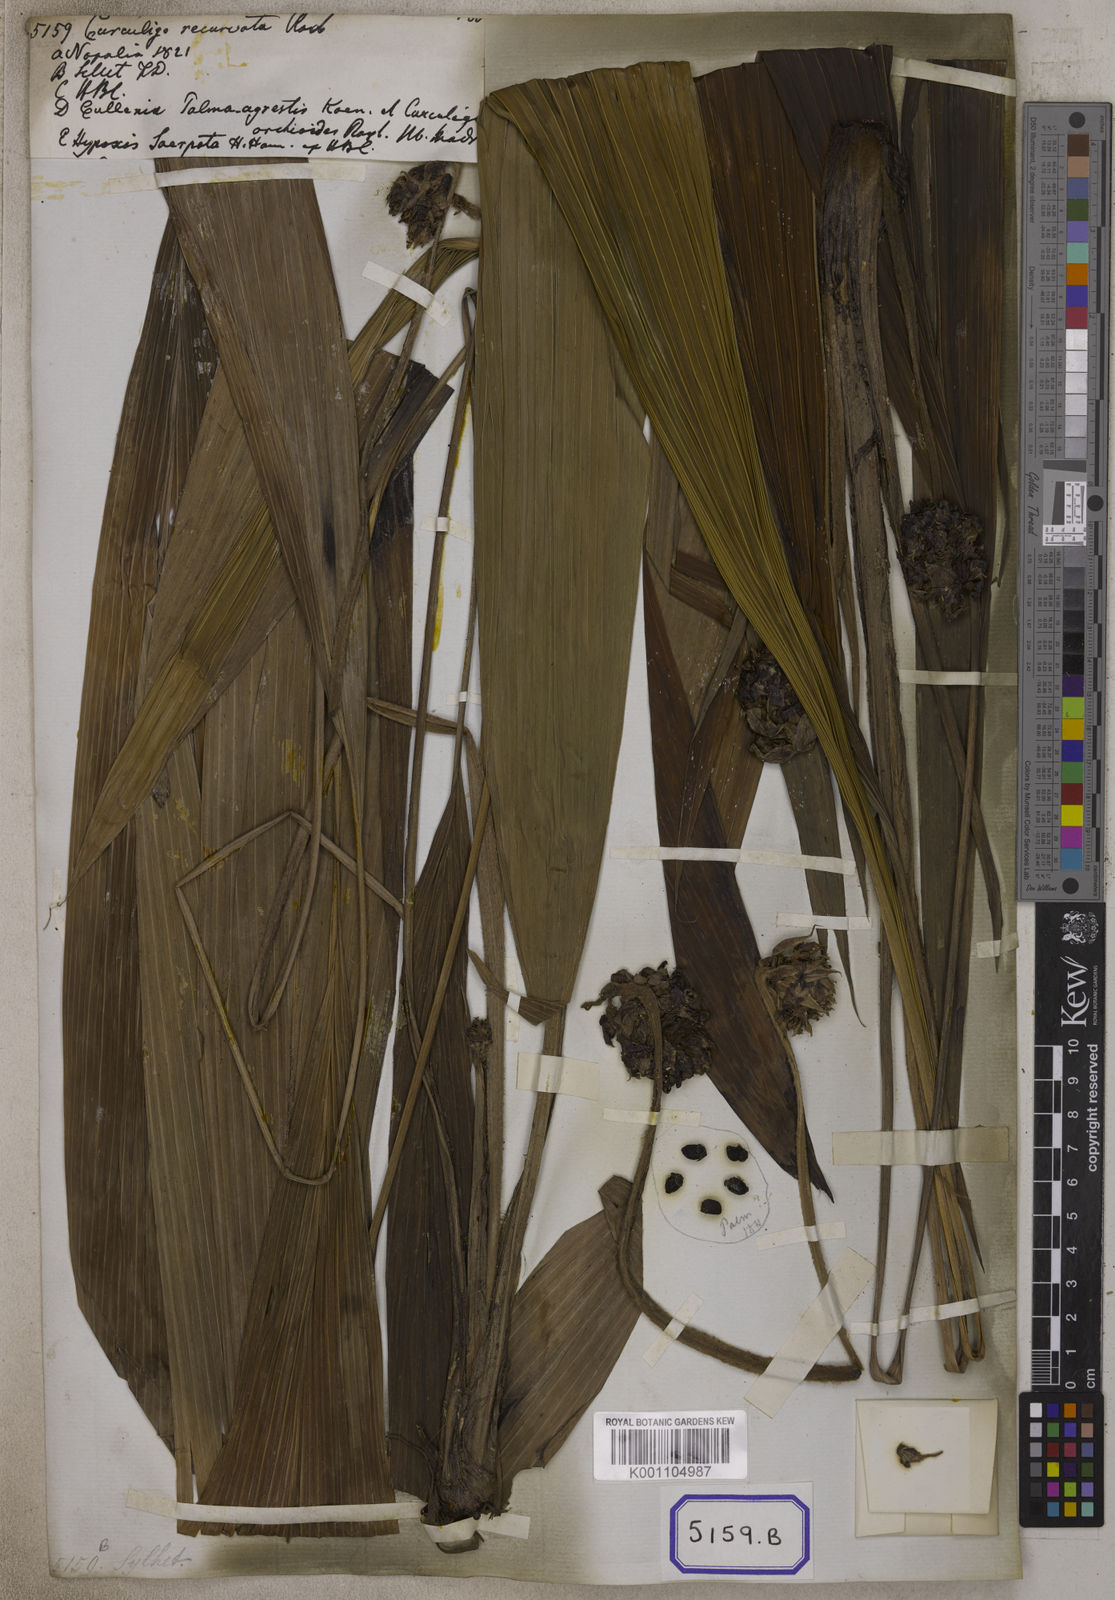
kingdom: Plantae
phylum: Tracheophyta
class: Liliopsida
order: Asparagales
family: Hypoxidaceae
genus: Curculigo
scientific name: Curculigo capitulata
